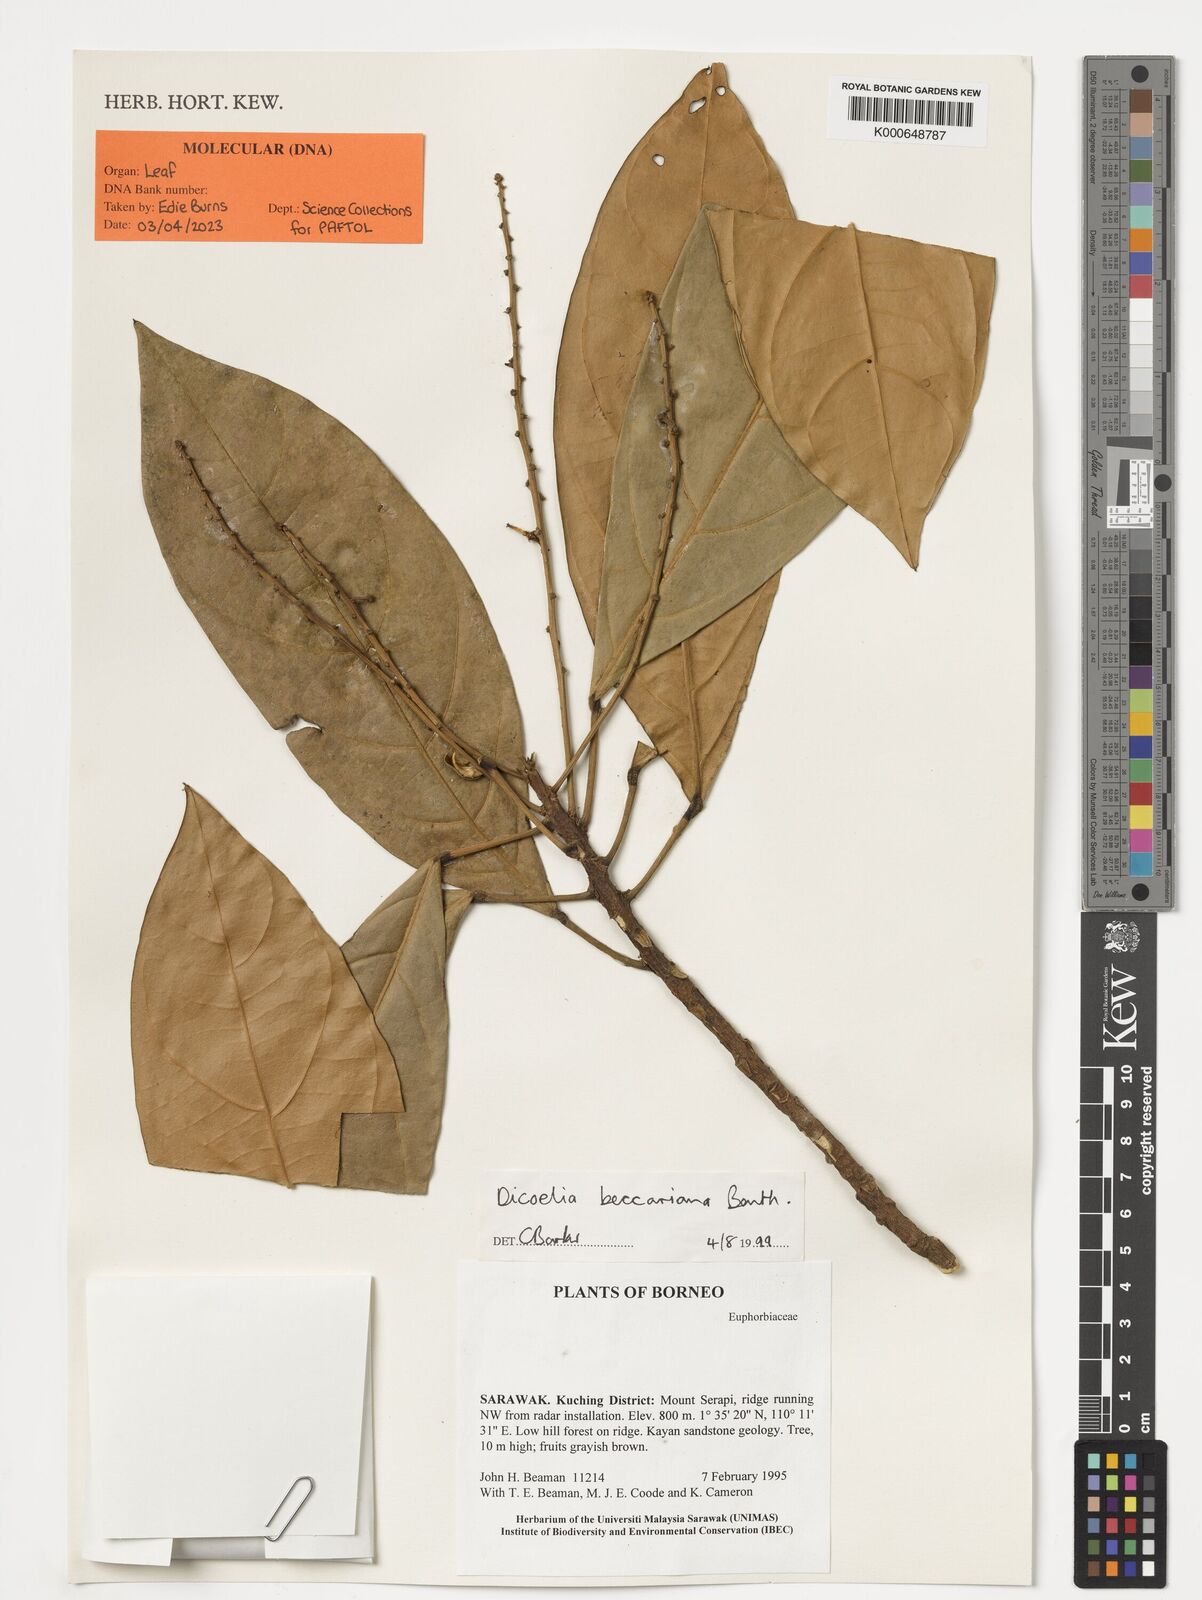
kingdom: Plantae
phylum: Tracheophyta
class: Magnoliopsida
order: Malpighiales
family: Phyllanthaceae
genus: Dicoelia
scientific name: Dicoelia beccariana
